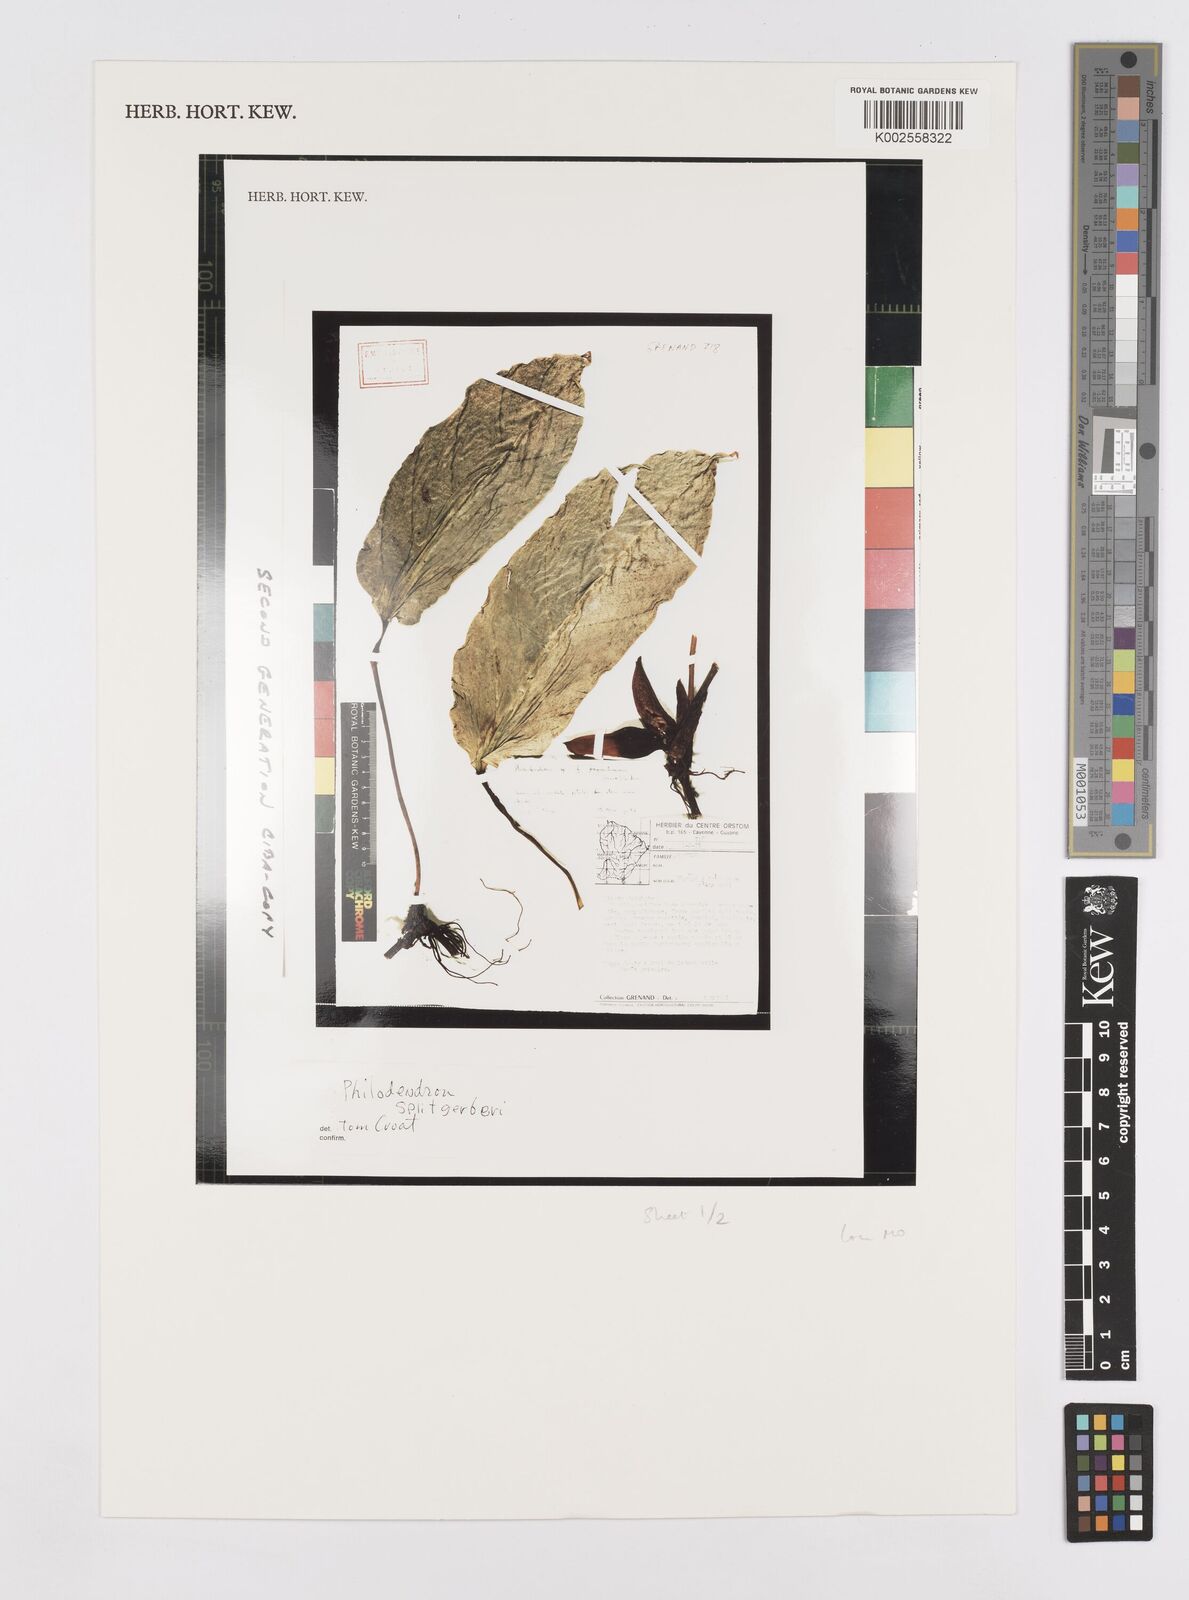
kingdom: Plantae
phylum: Tracheophyta
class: Liliopsida
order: Alismatales
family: Araceae
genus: Philodendron
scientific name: Philodendron splitgerberi
